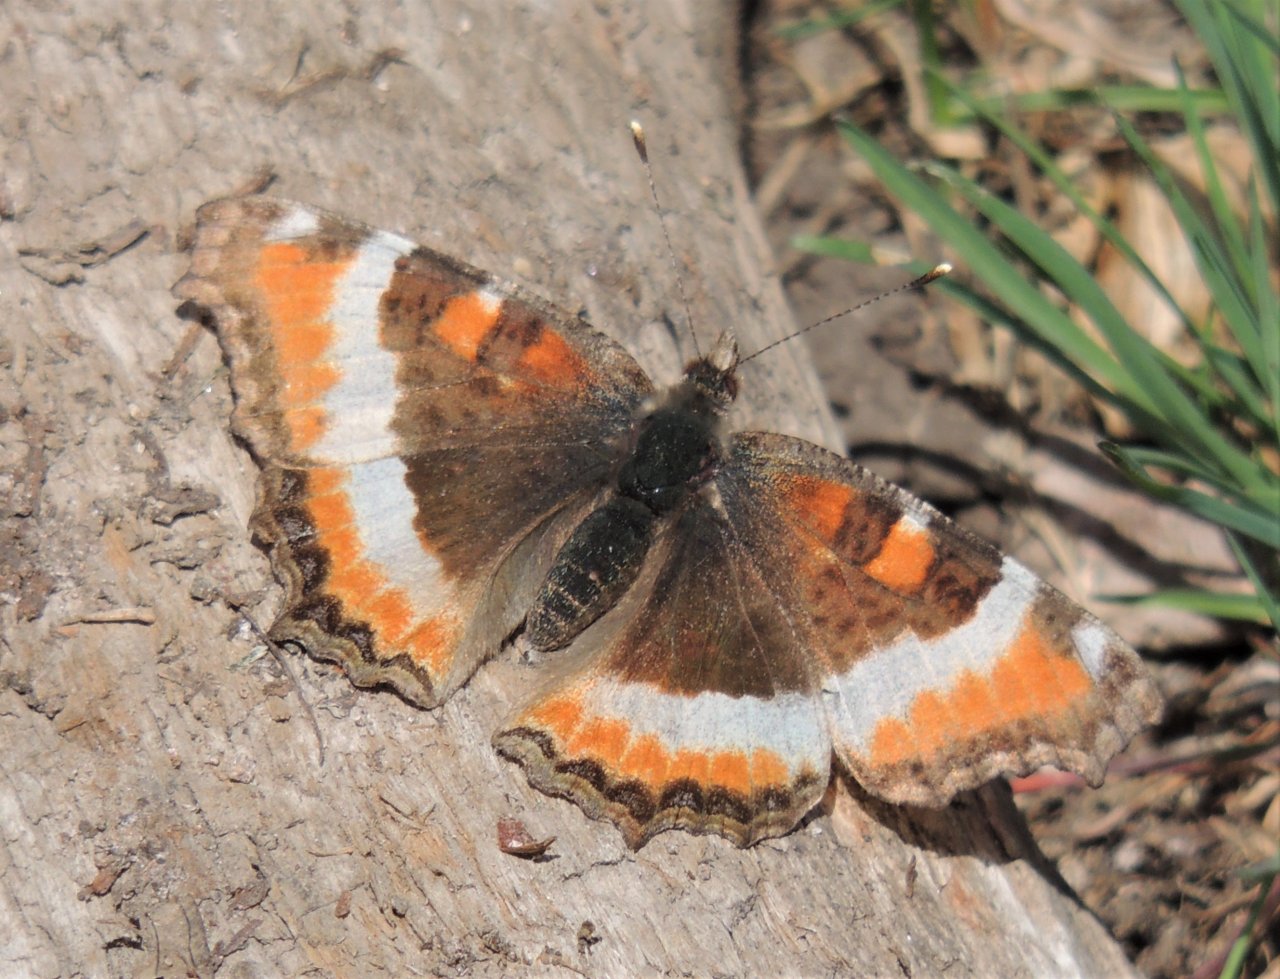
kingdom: Animalia
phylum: Arthropoda
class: Insecta
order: Lepidoptera
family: Nymphalidae
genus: Aglais
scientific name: Aglais milberti
